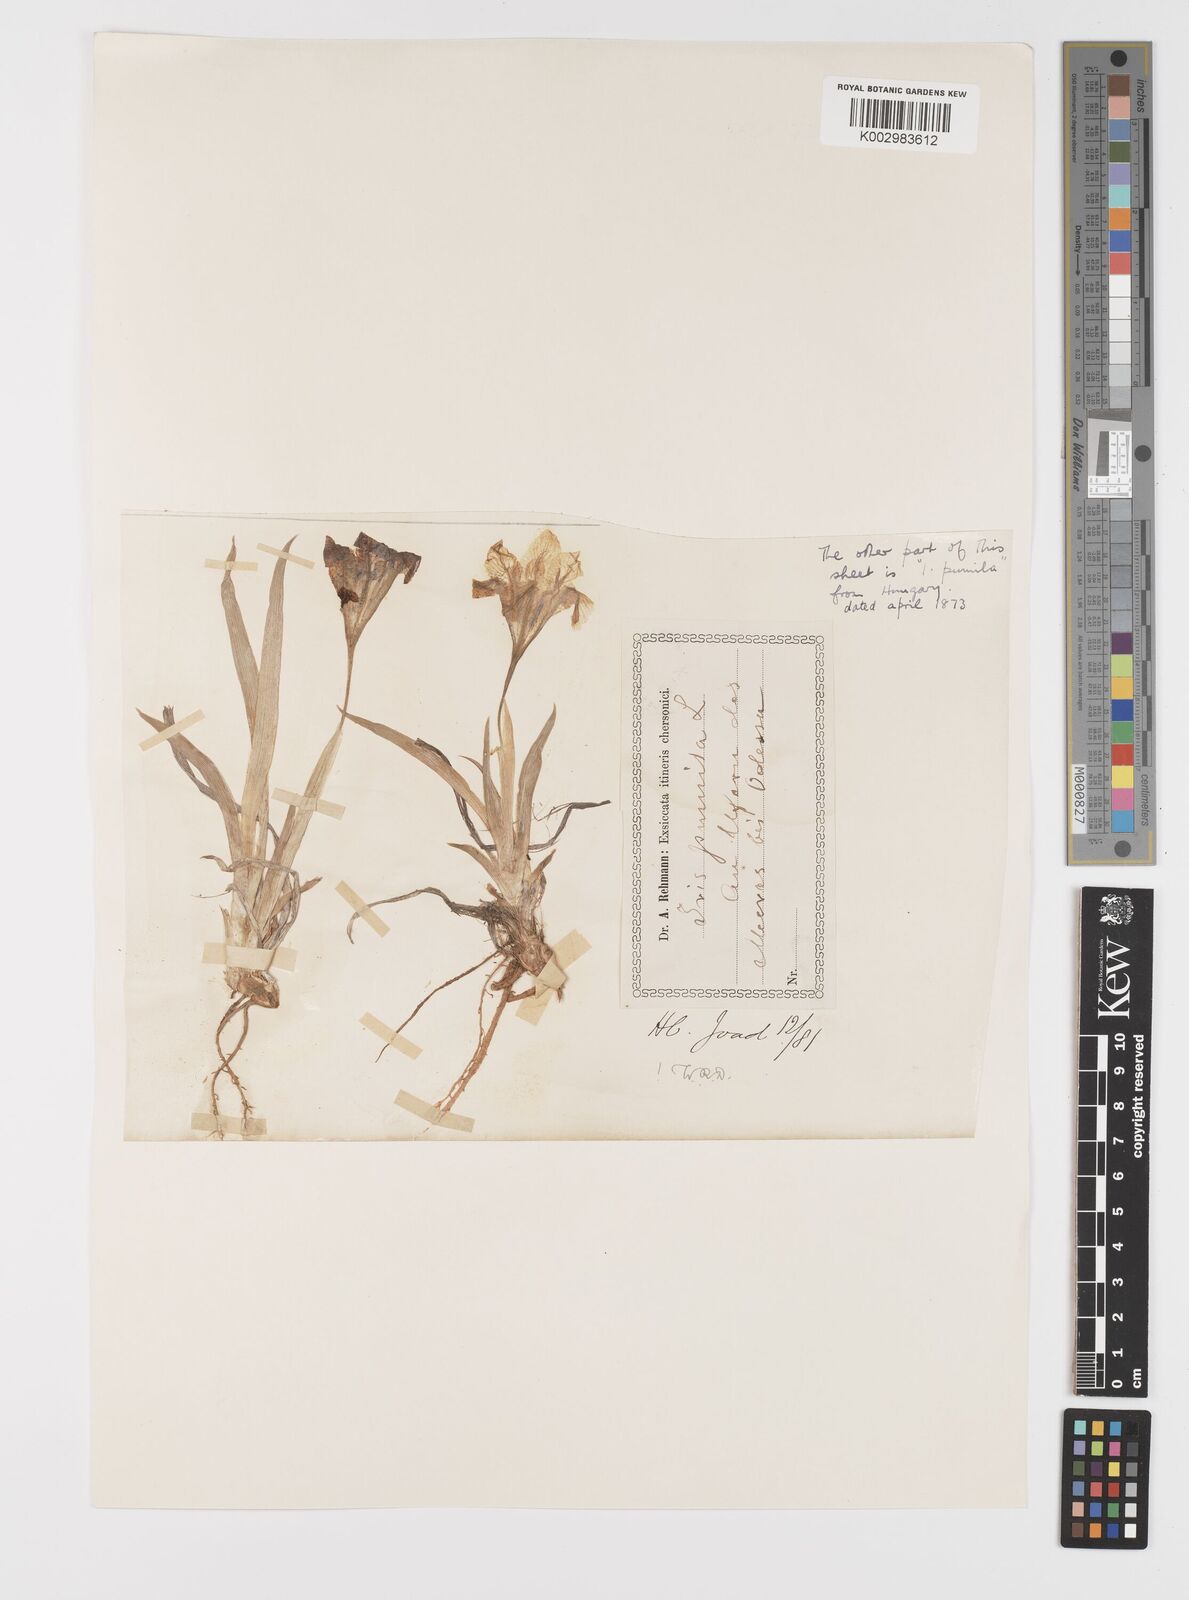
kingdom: Plantae
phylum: Tracheophyta
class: Liliopsida
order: Asparagales
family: Iridaceae
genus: Iris
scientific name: Iris pumila
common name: Dwarf iris
